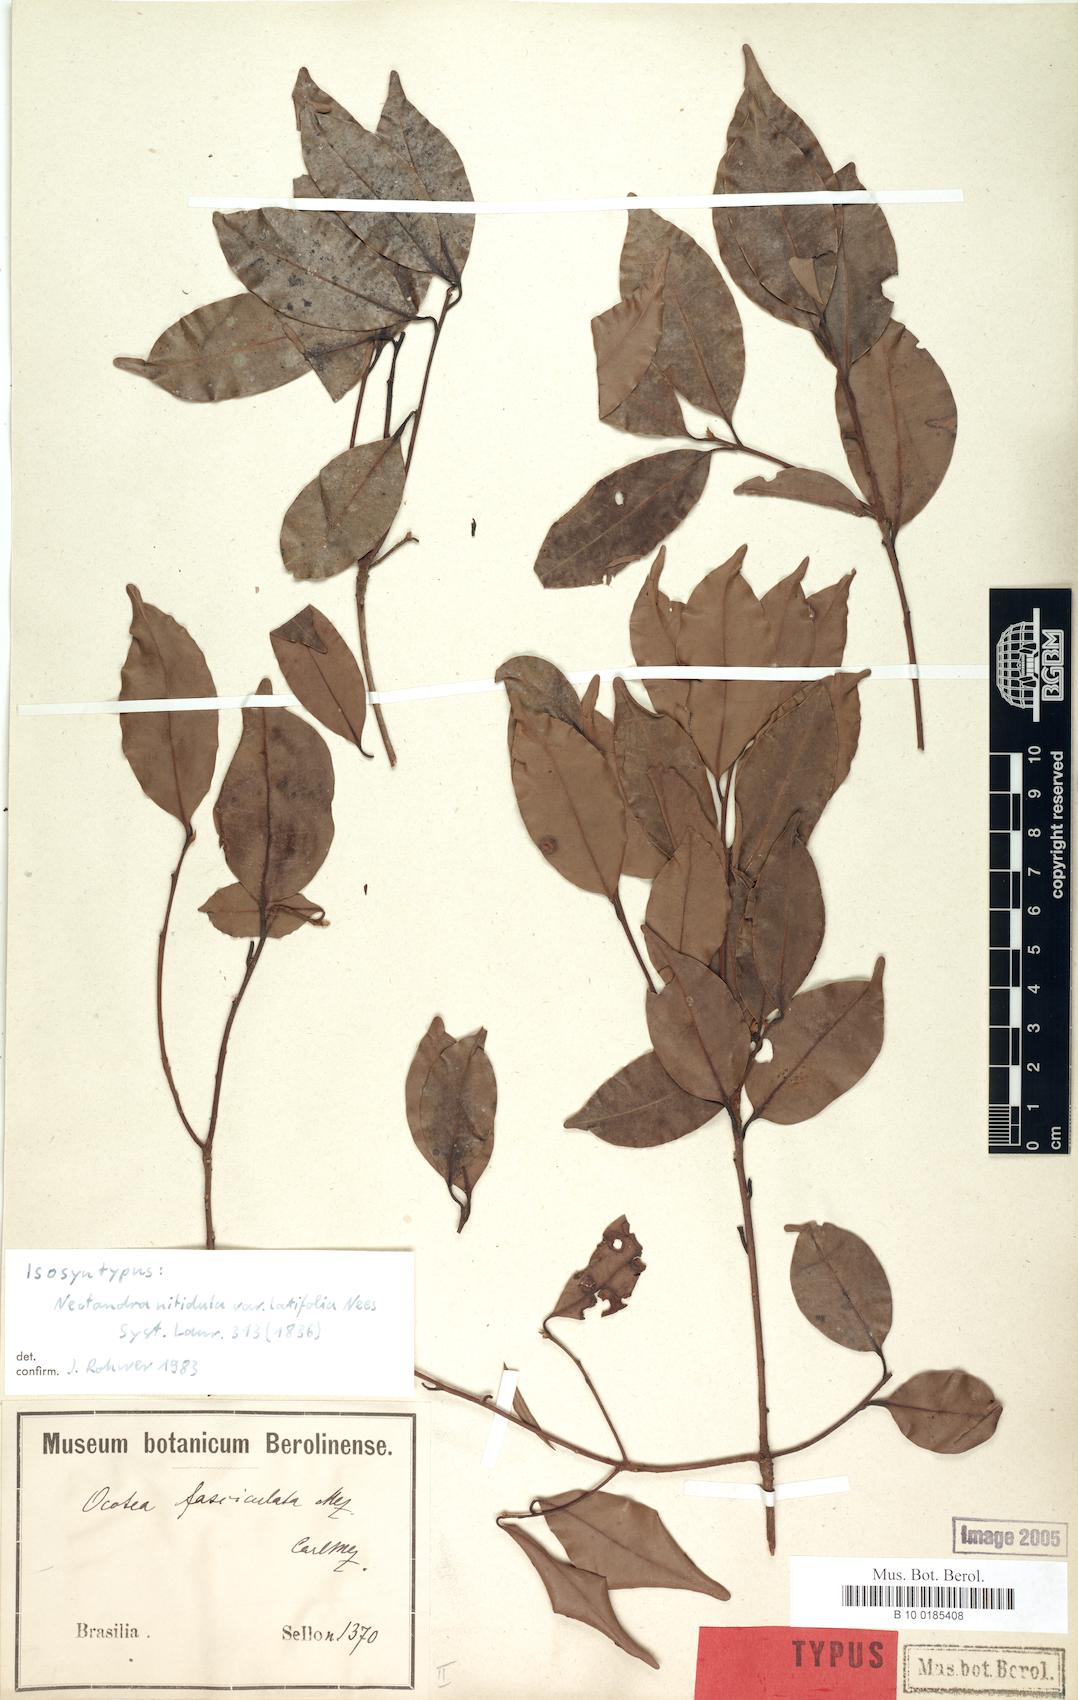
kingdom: Plantae
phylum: Tracheophyta
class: Magnoliopsida
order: Laurales
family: Lauraceae
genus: Mespilodaphne
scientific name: Mespilodaphne fasciculata
